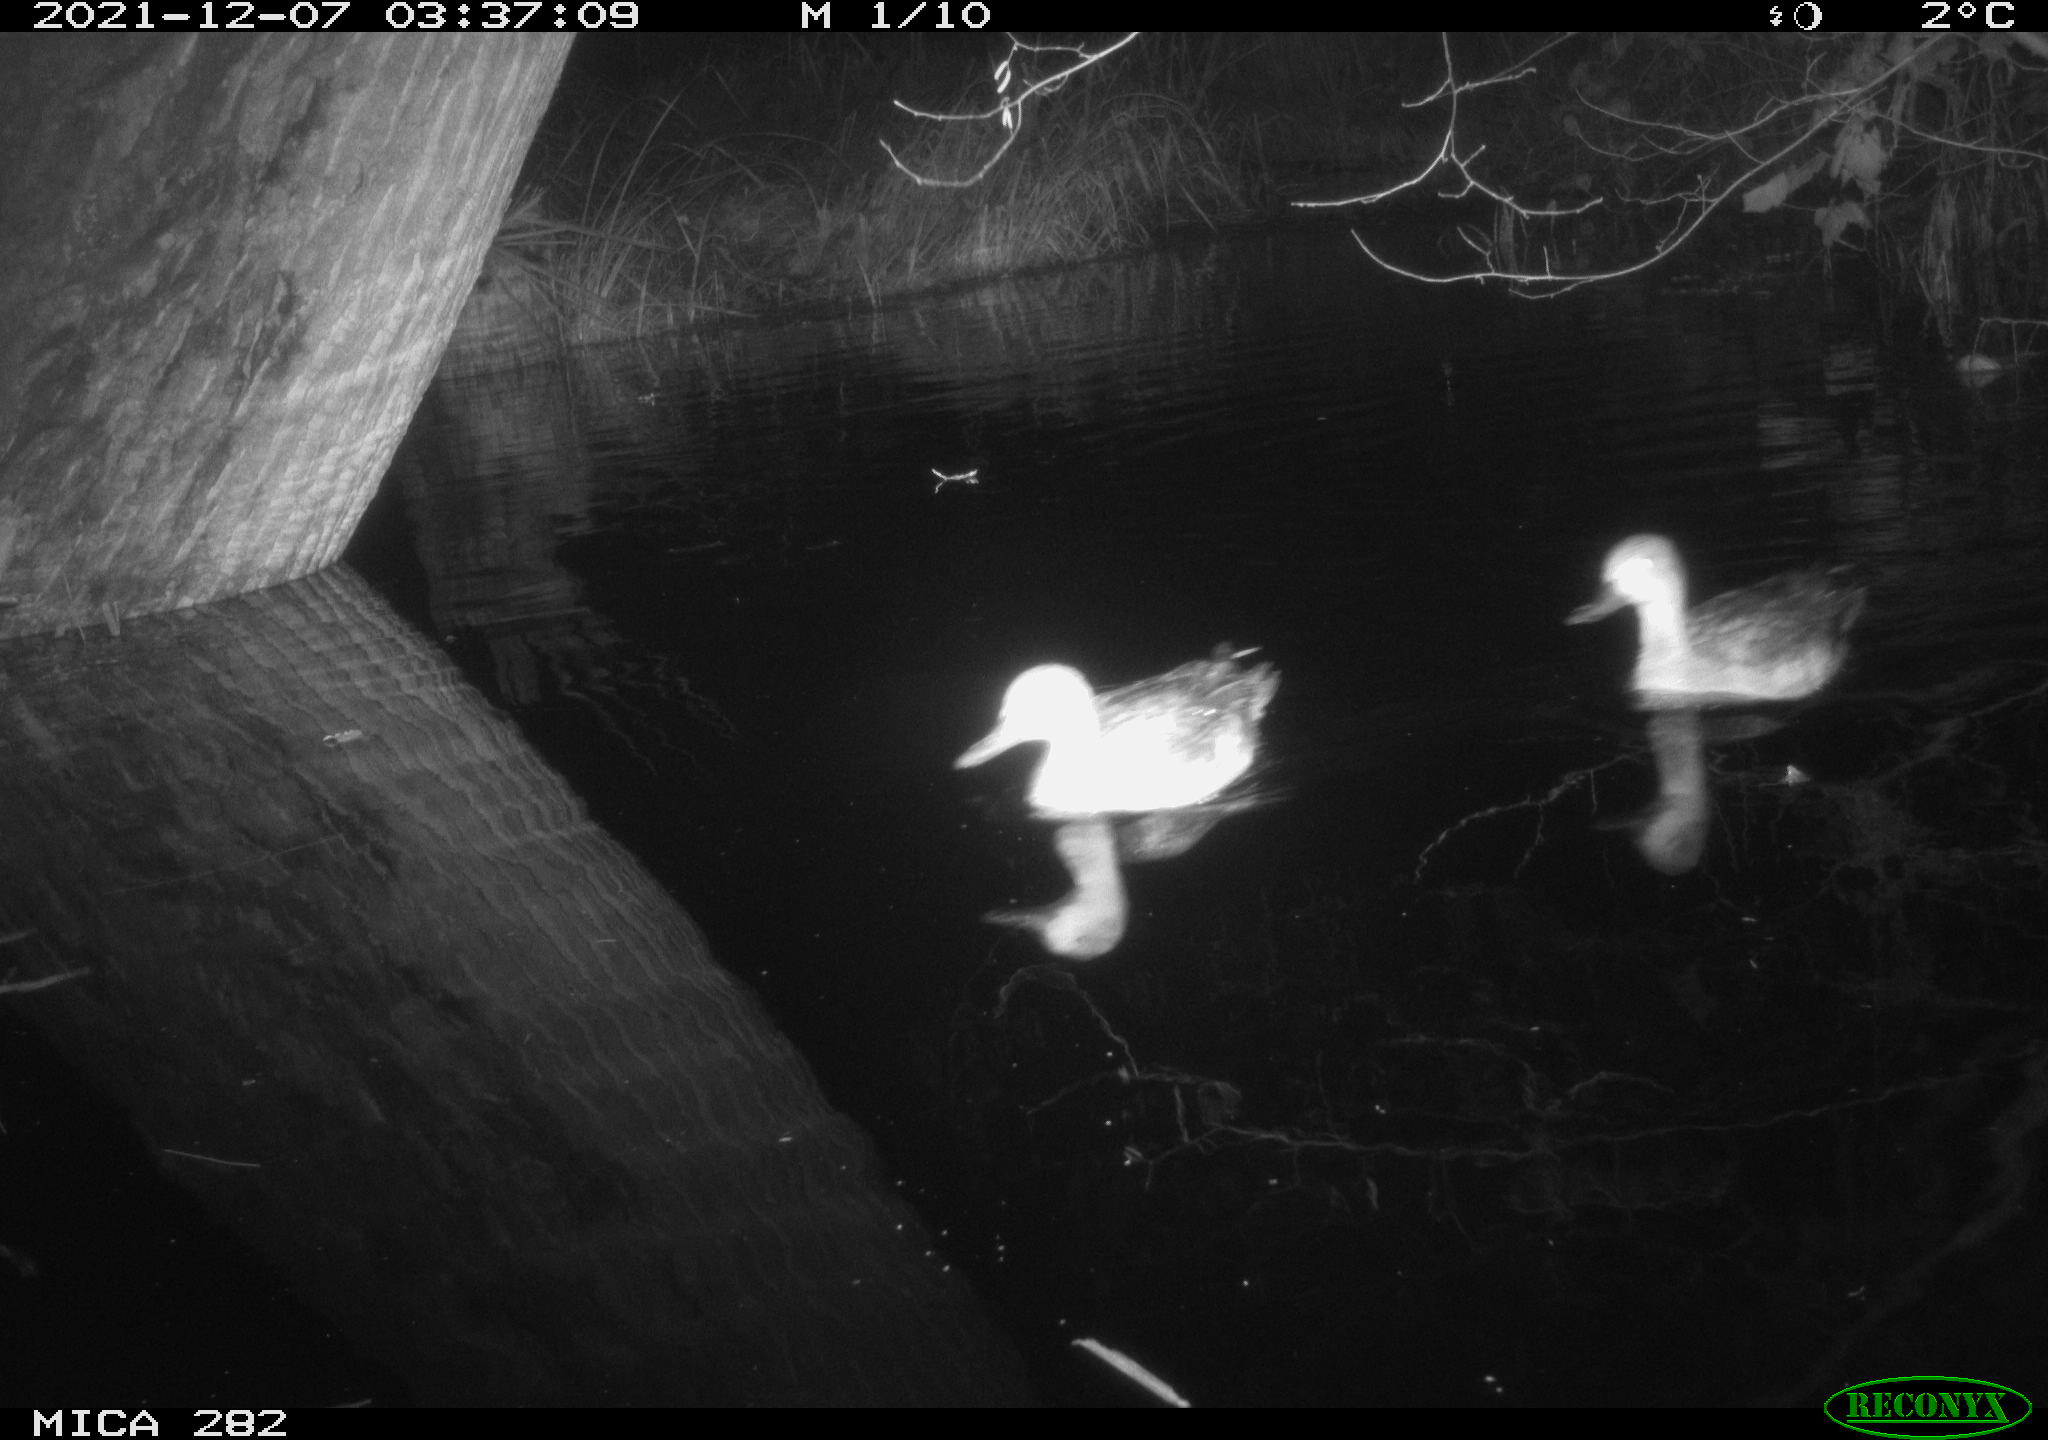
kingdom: Animalia
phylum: Chordata
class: Aves
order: Anseriformes
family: Anatidae
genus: Mareca
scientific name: Mareca strepera
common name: Gadwall
